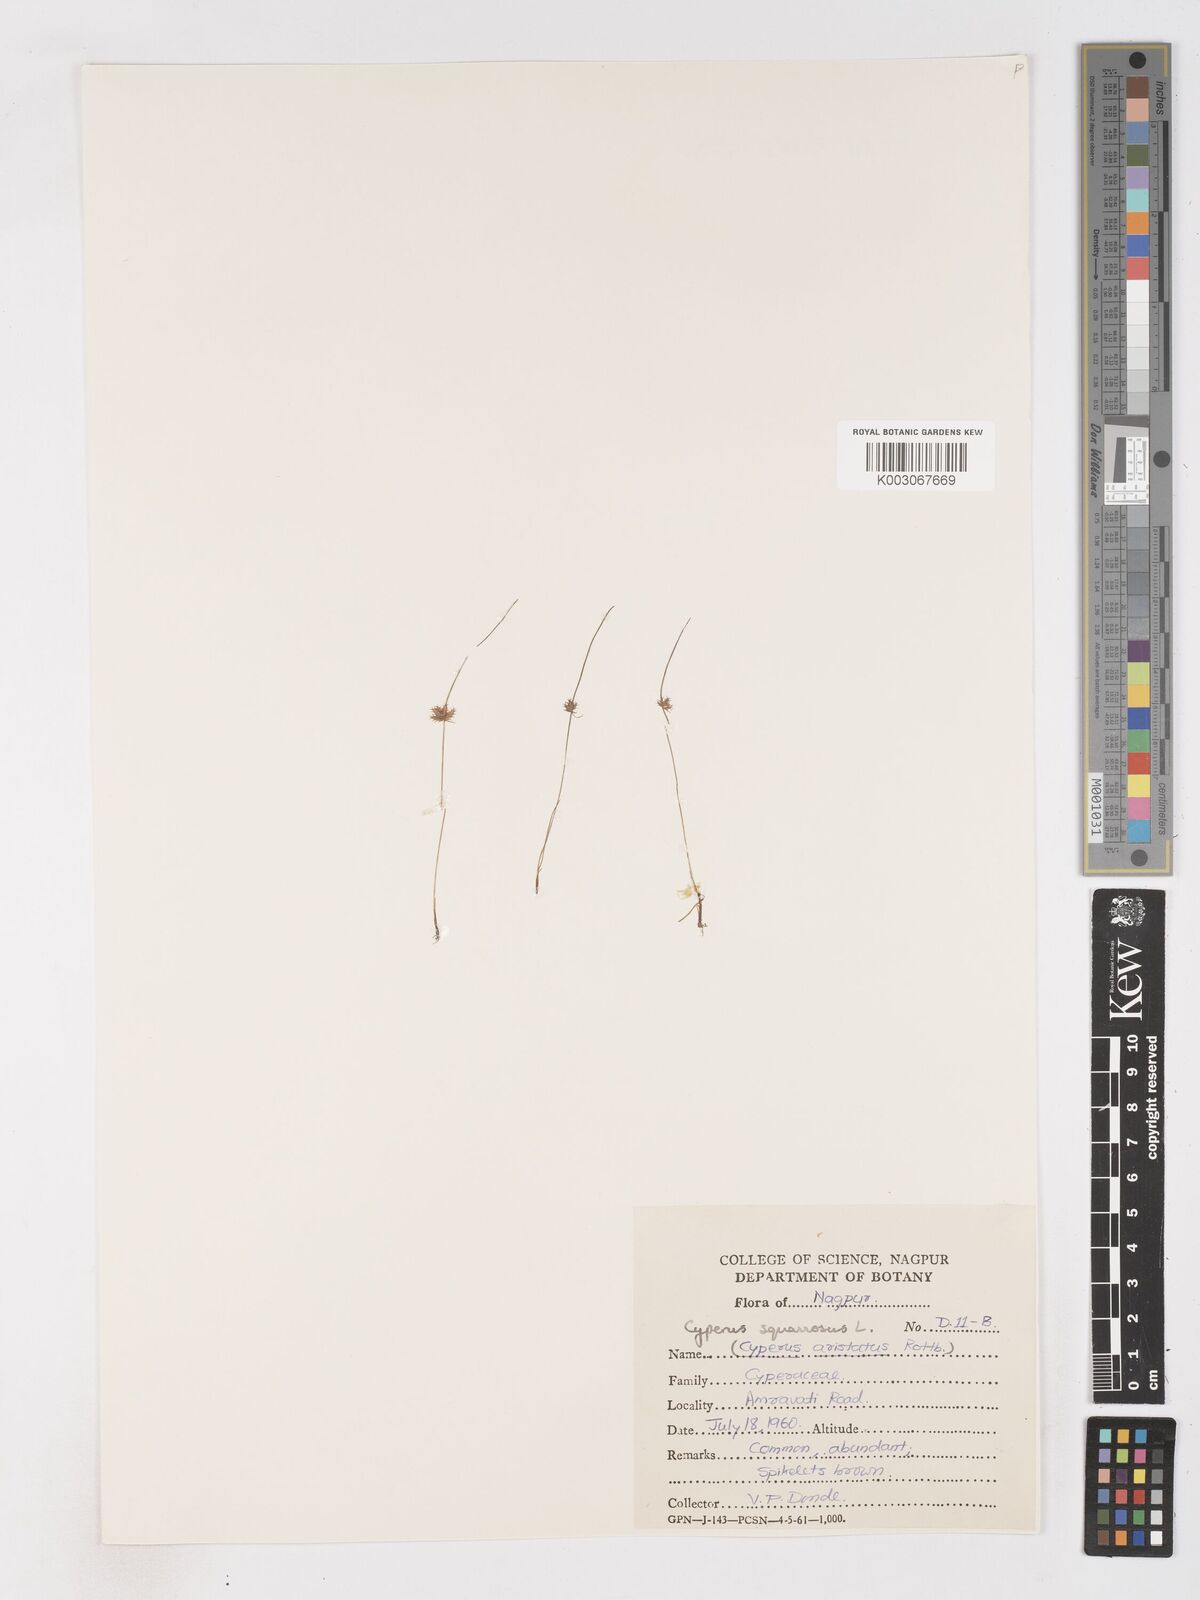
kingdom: Plantae
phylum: Tracheophyta
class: Liliopsida
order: Poales
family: Cyperaceae
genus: Cyperus
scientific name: Cyperus squarrosus
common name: Awned cyperus
